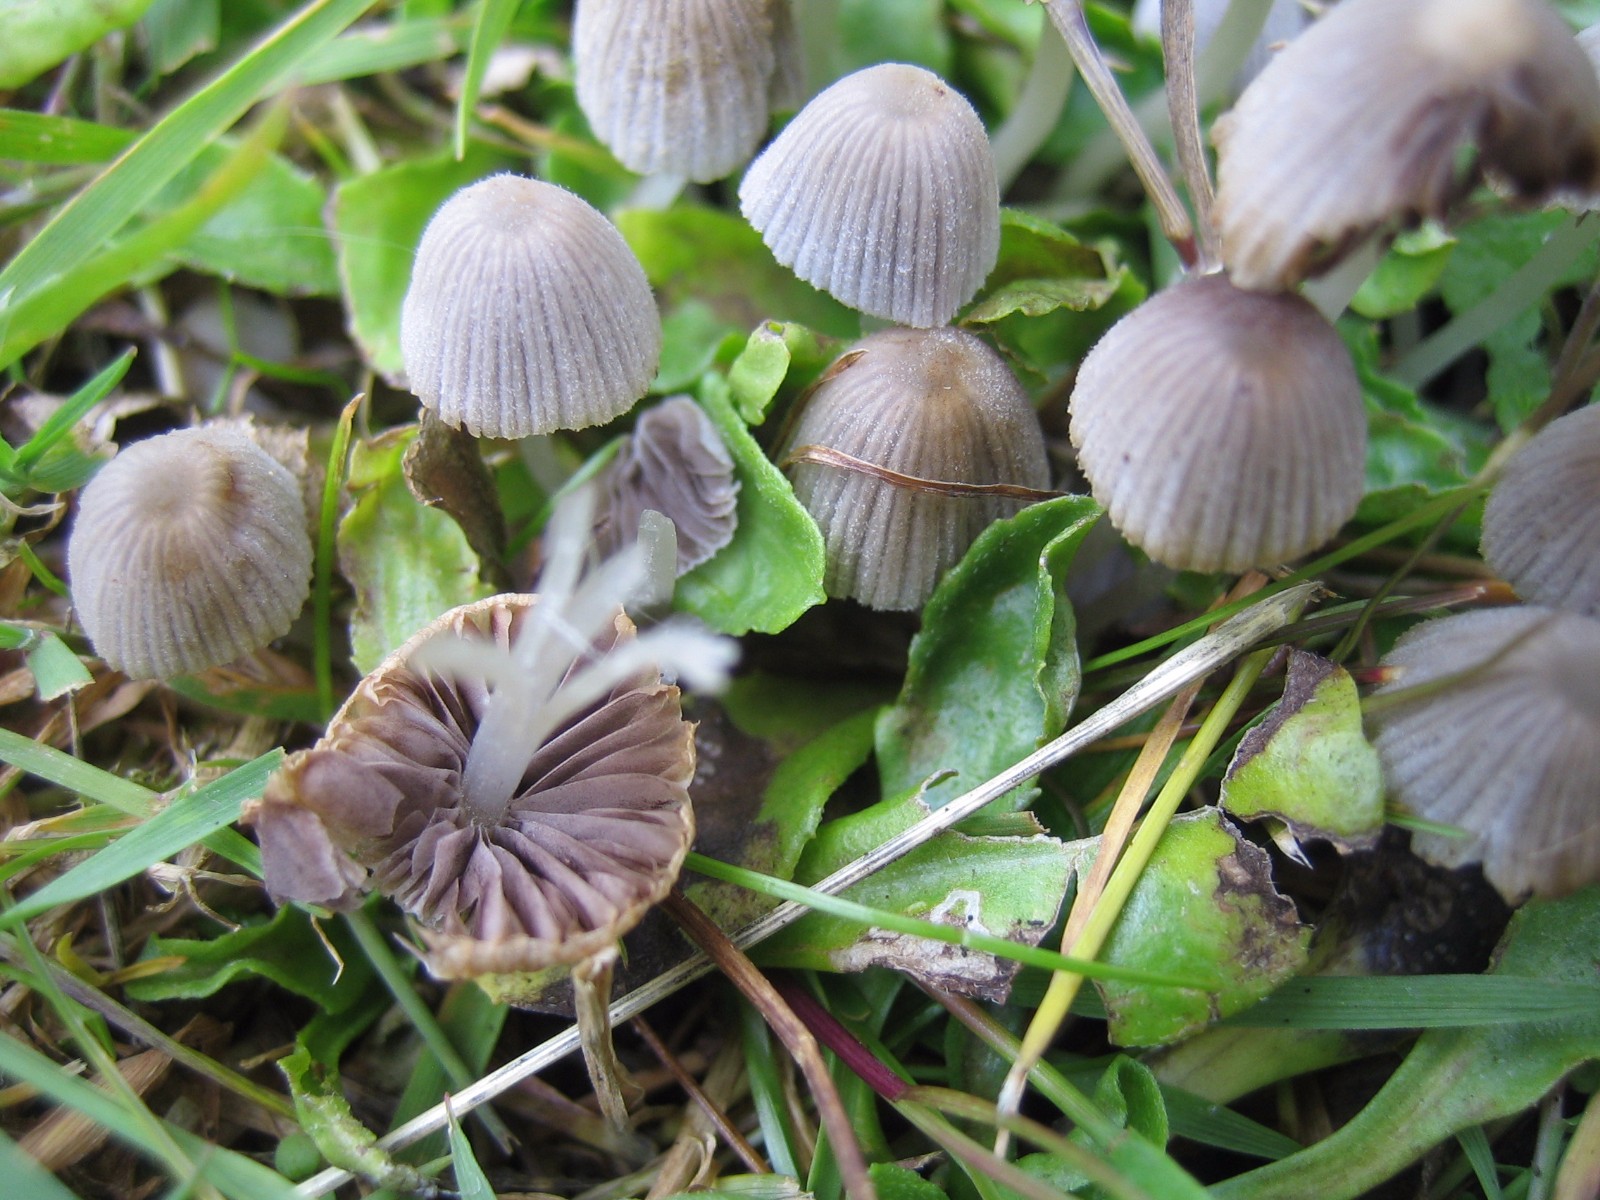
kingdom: Fungi
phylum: Basidiomycota
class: Agaricomycetes
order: Agaricales
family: Psathyrellaceae
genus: Coprinellus
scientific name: Coprinellus disseminatus
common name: bredsået blækhat
